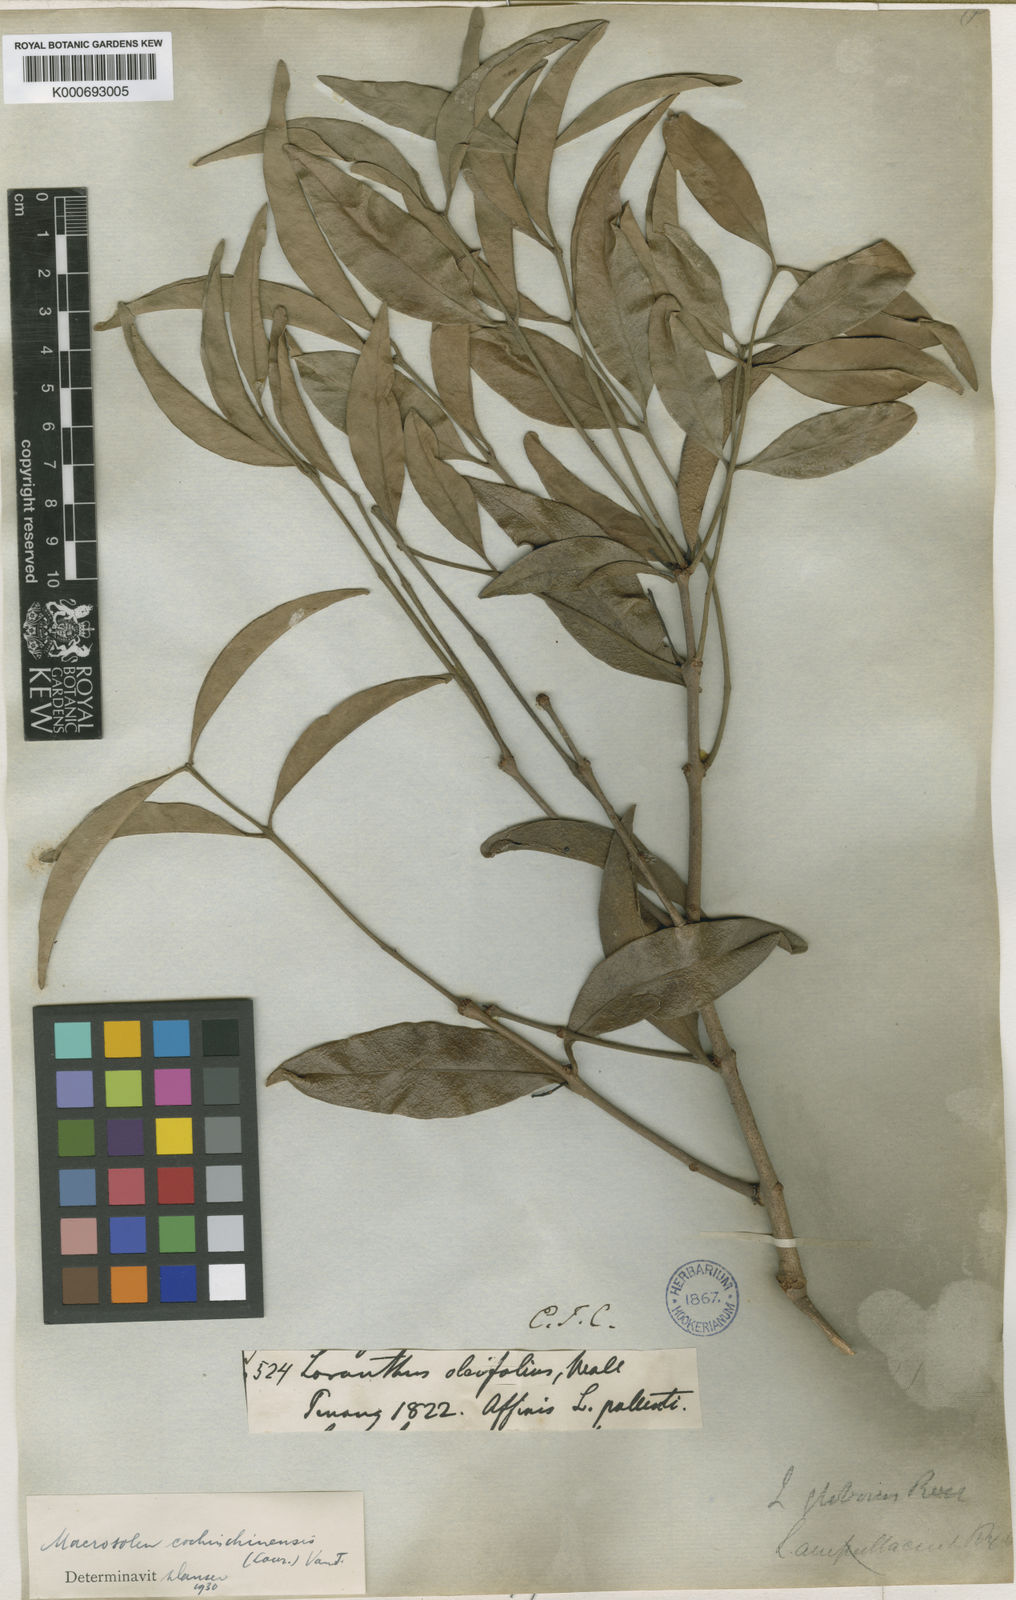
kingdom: Plantae
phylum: Tracheophyta
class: Magnoliopsida
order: Santalales
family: Loranthaceae
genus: Macrosolen
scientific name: Macrosolen cochinchinensis
